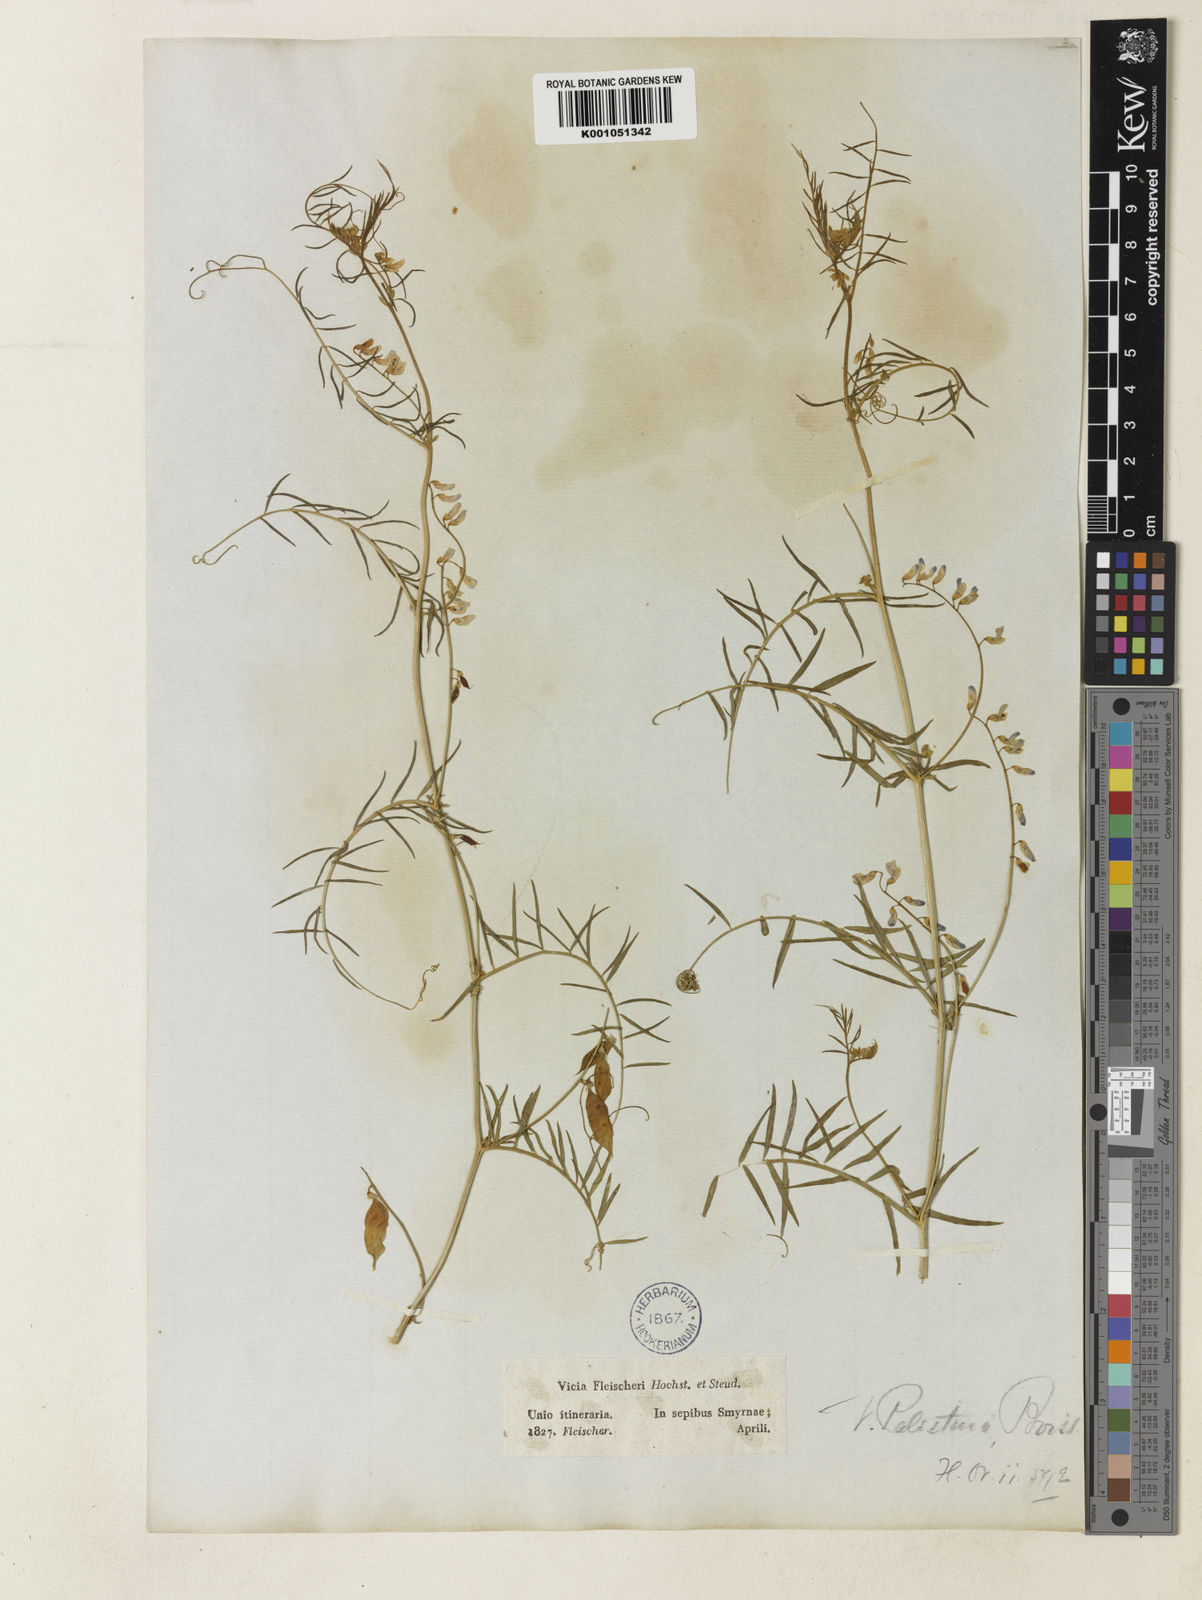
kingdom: Plantae
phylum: Tracheophyta
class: Magnoliopsida
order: Fabales
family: Fabaceae
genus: Vicia
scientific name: Vicia palaestina
